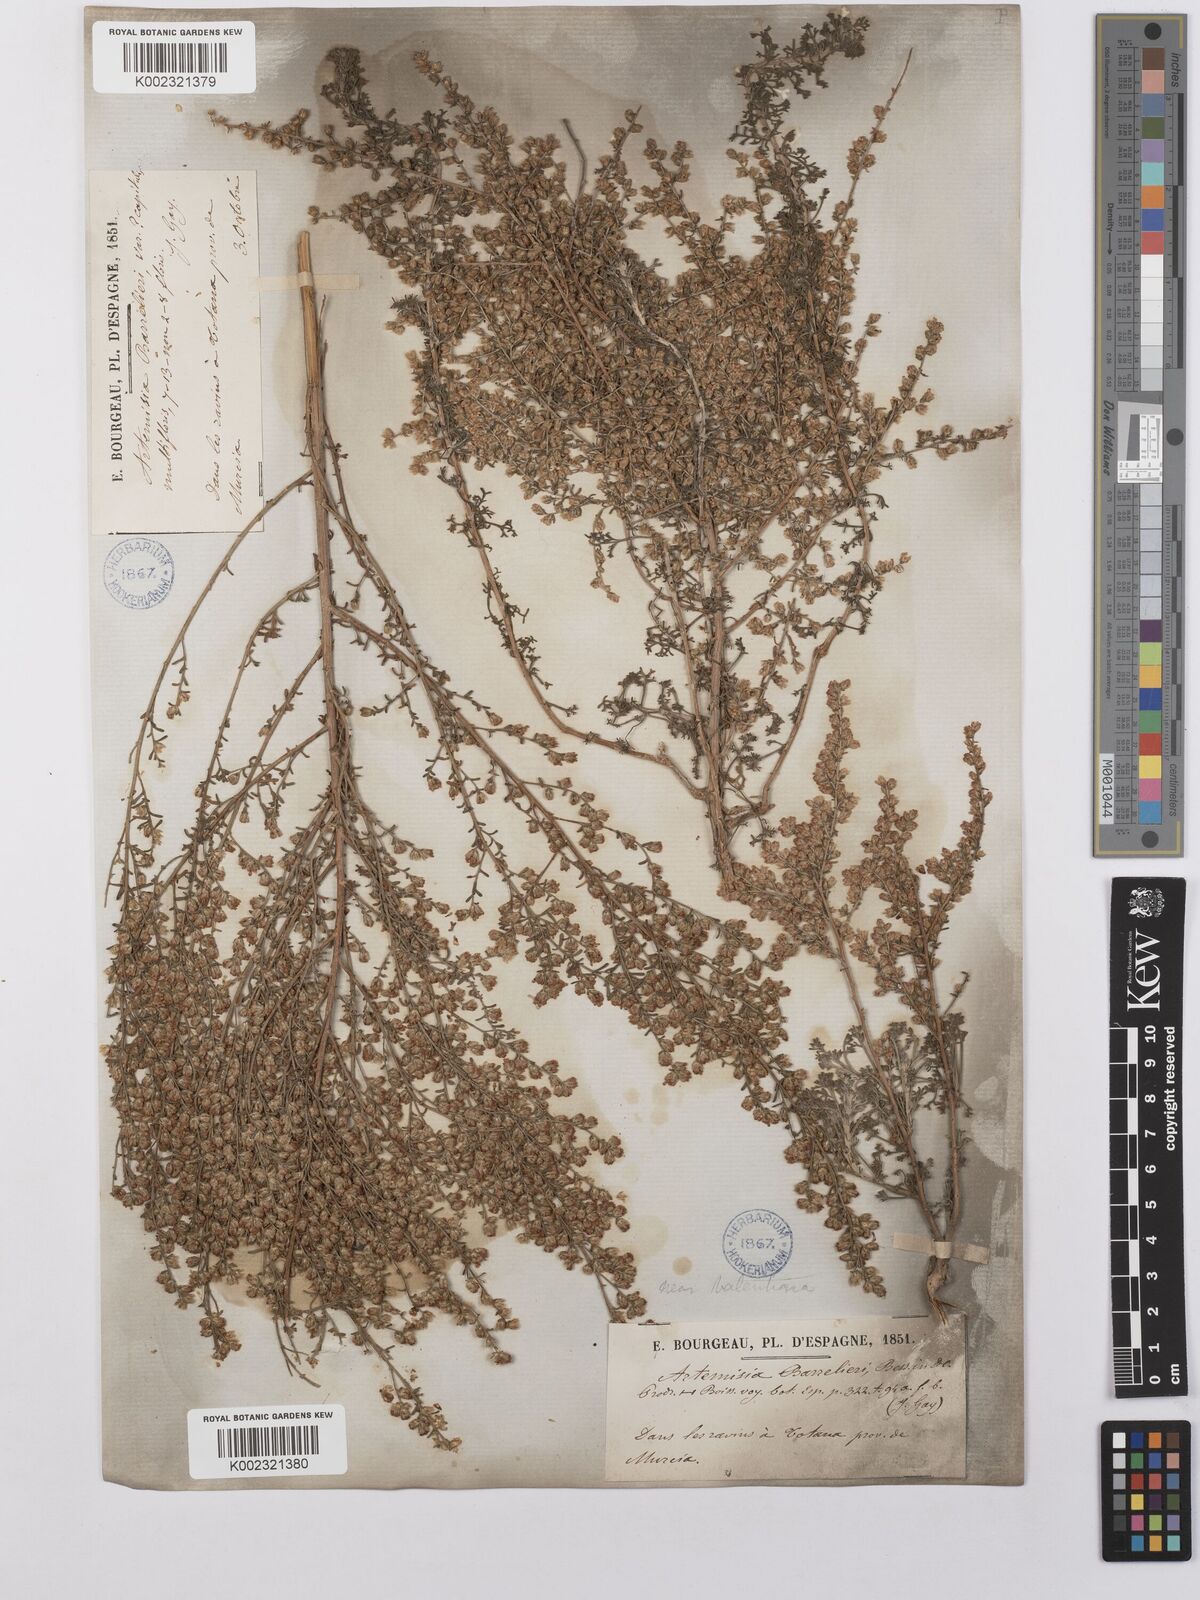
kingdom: Plantae
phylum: Tracheophyta
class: Magnoliopsida
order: Asterales
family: Asteraceae
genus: Artemisia
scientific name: Artemisia barrelieri
